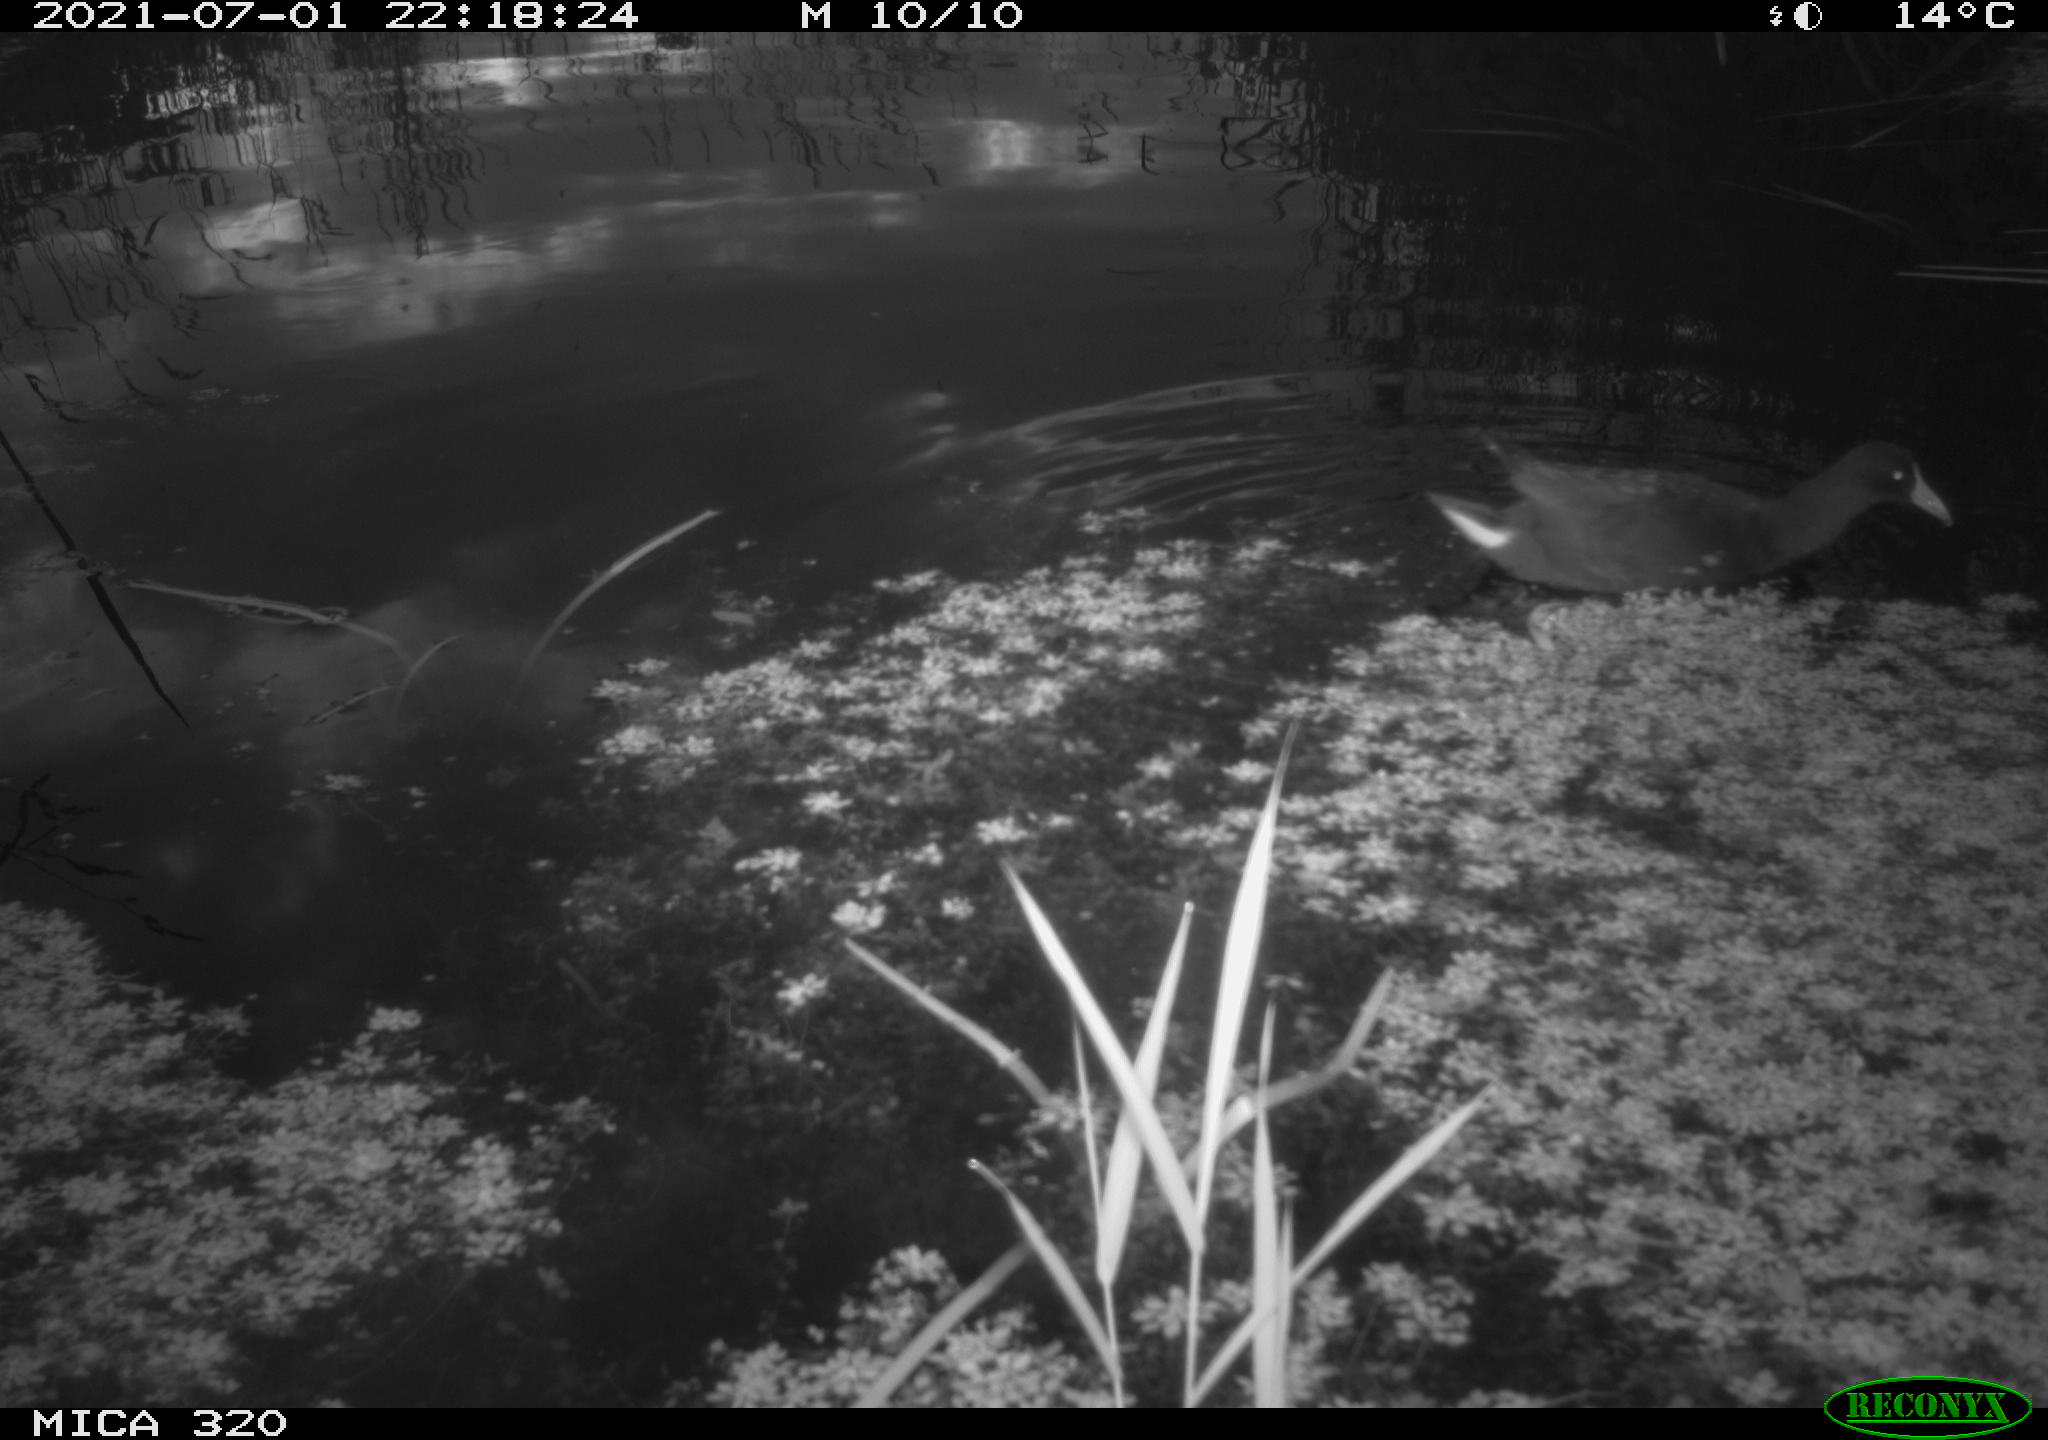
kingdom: Animalia
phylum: Chordata
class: Aves
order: Gruiformes
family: Rallidae
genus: Gallinula
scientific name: Gallinula chloropus
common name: Common moorhen
